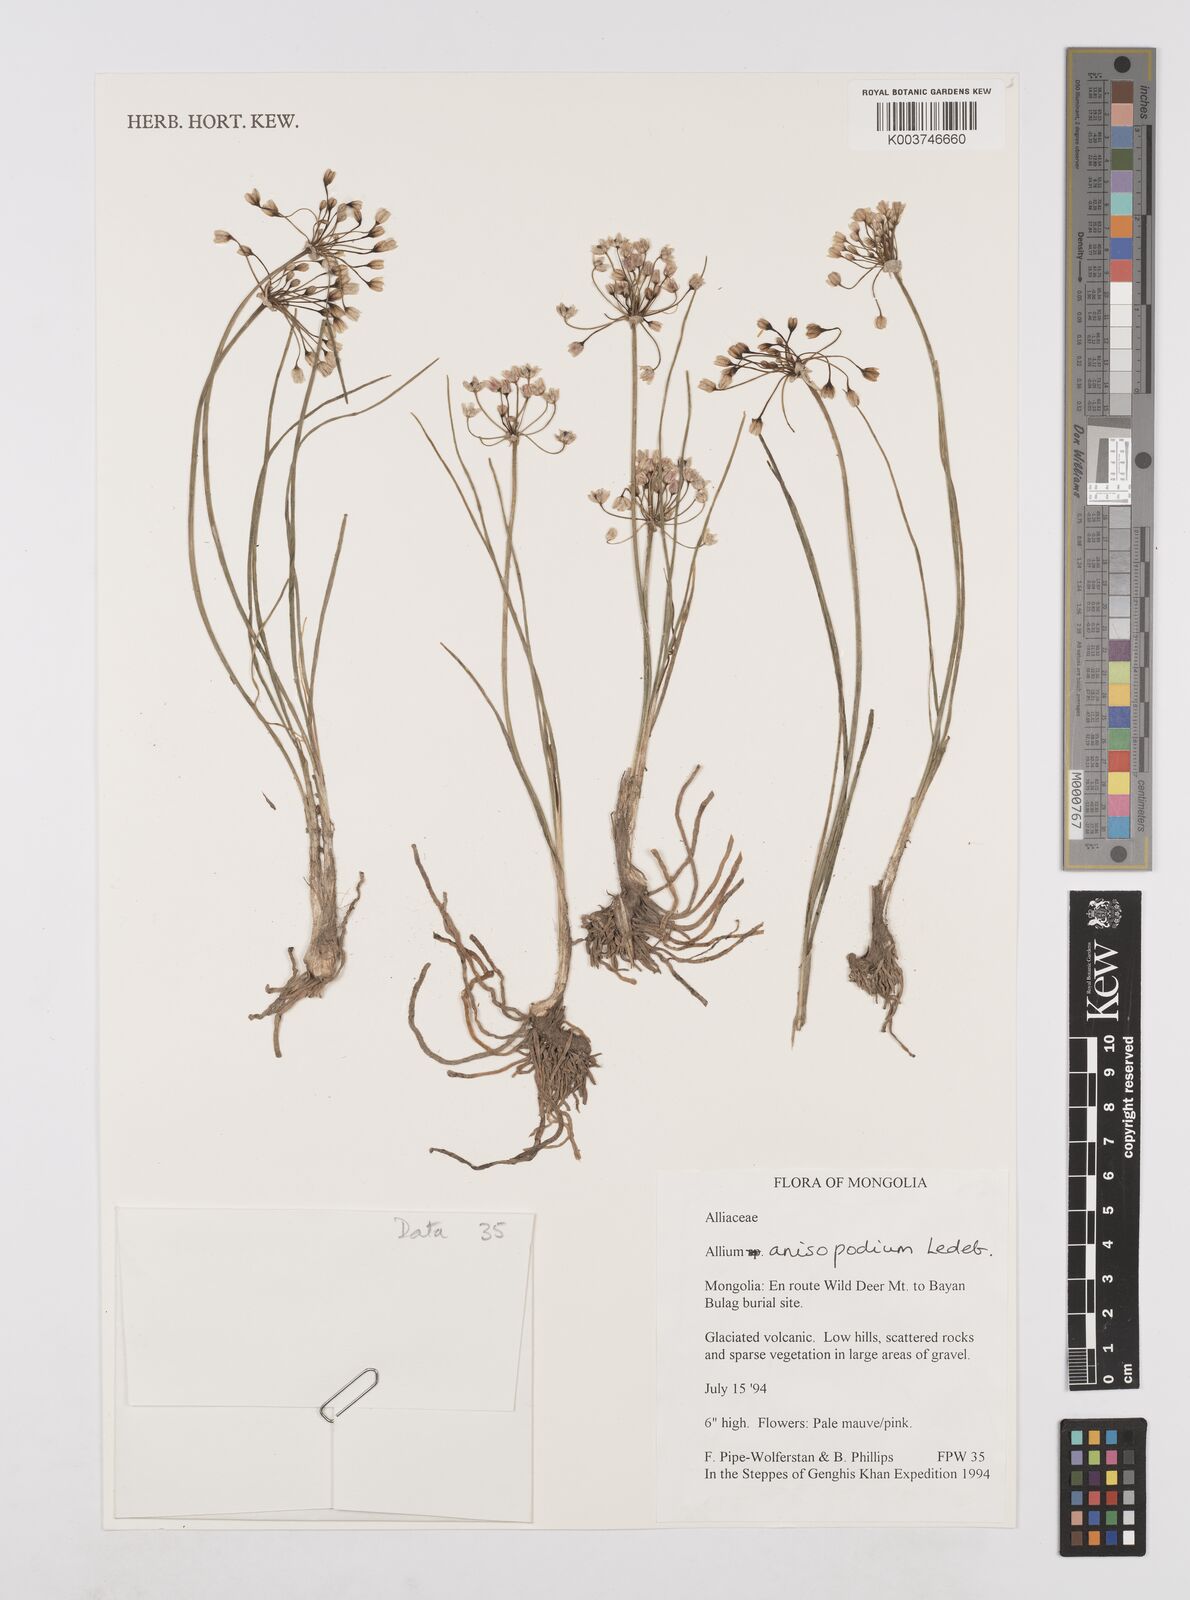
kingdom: Plantae
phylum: Tracheophyta
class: Liliopsida
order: Asparagales
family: Amaryllidaceae
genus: Allium
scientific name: Allium anisopodium
